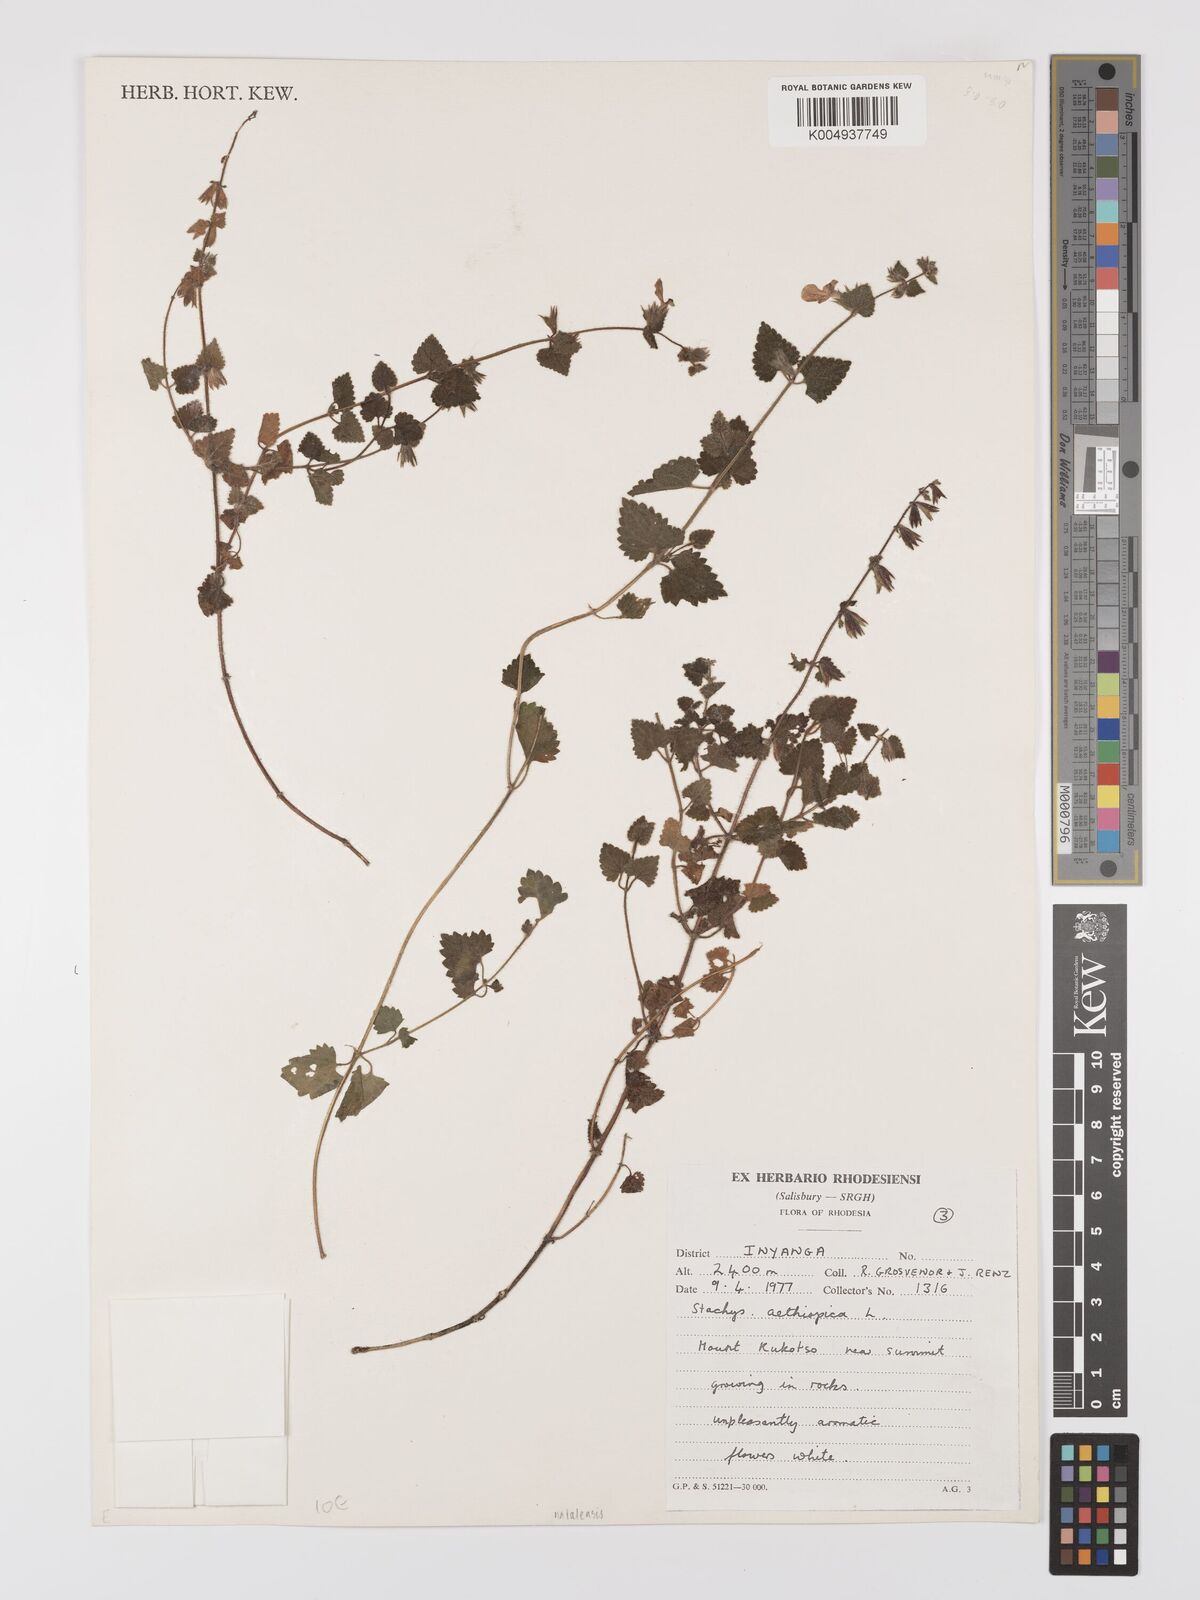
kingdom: Plantae
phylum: Tracheophyta
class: Magnoliopsida
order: Lamiales
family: Lamiaceae
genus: Stachys
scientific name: Stachys natalensis
